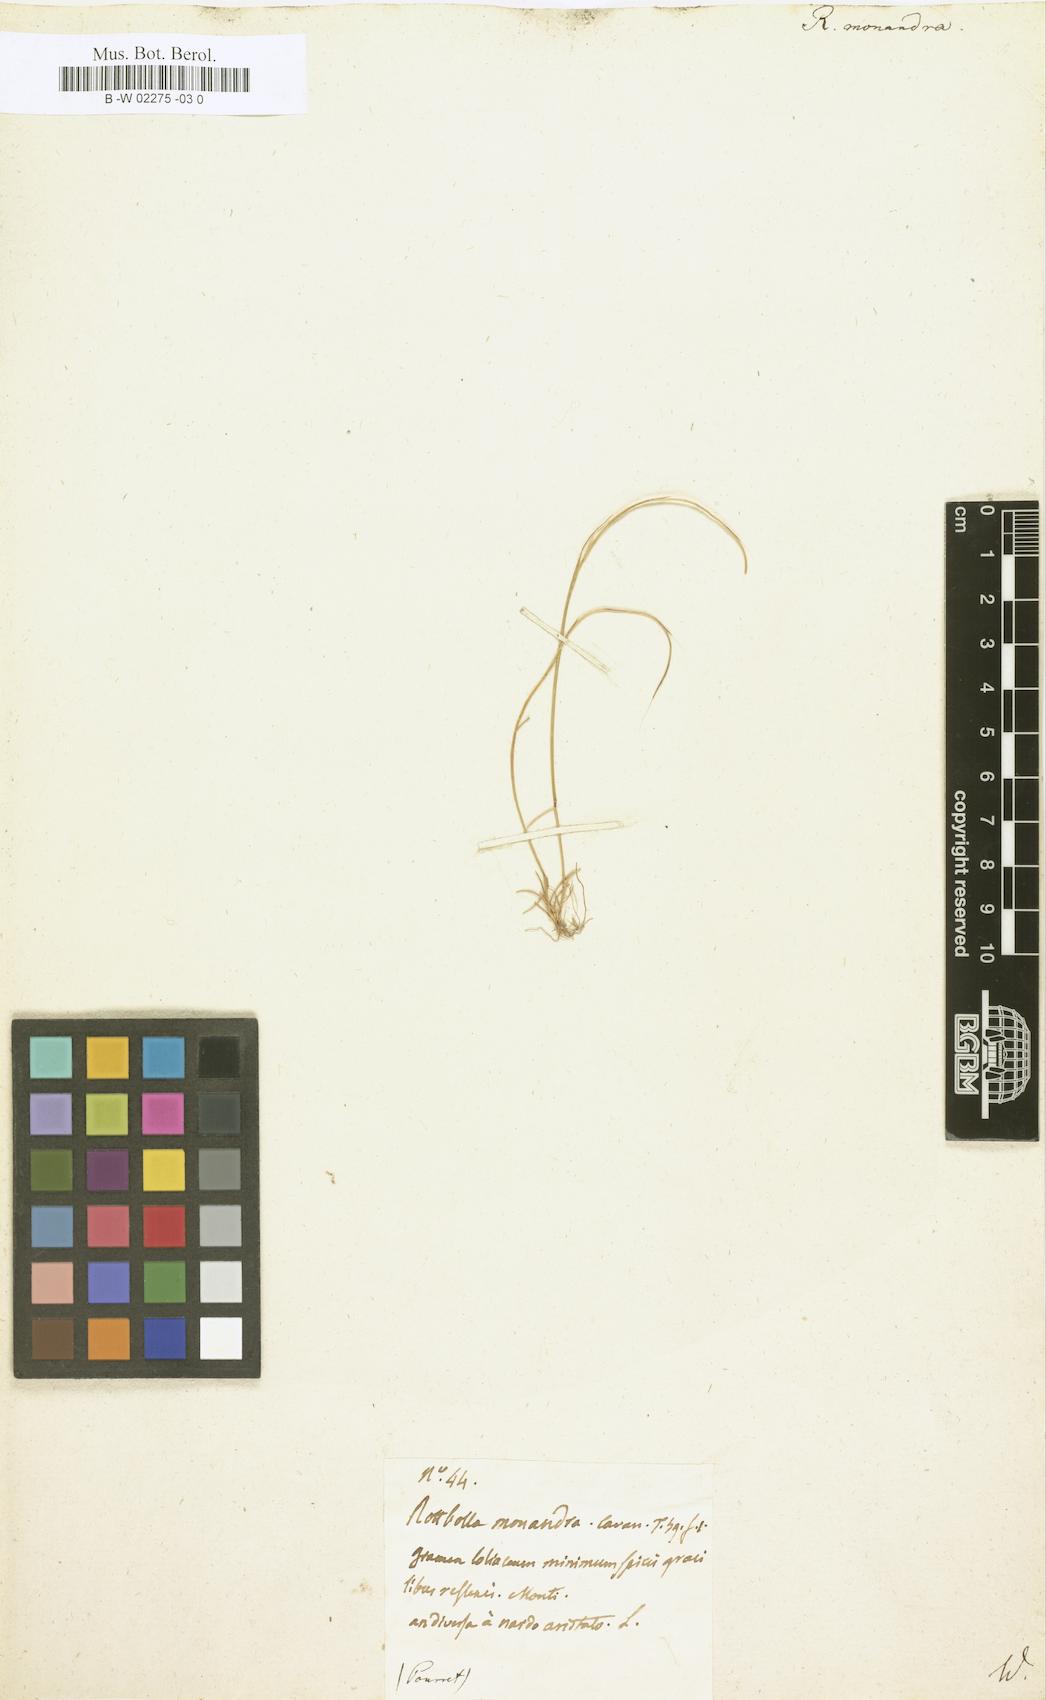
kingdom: Plantae
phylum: Tracheophyta
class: Liliopsida
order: Poales
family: Poaceae
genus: Festuca
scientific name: Festuca incurva
